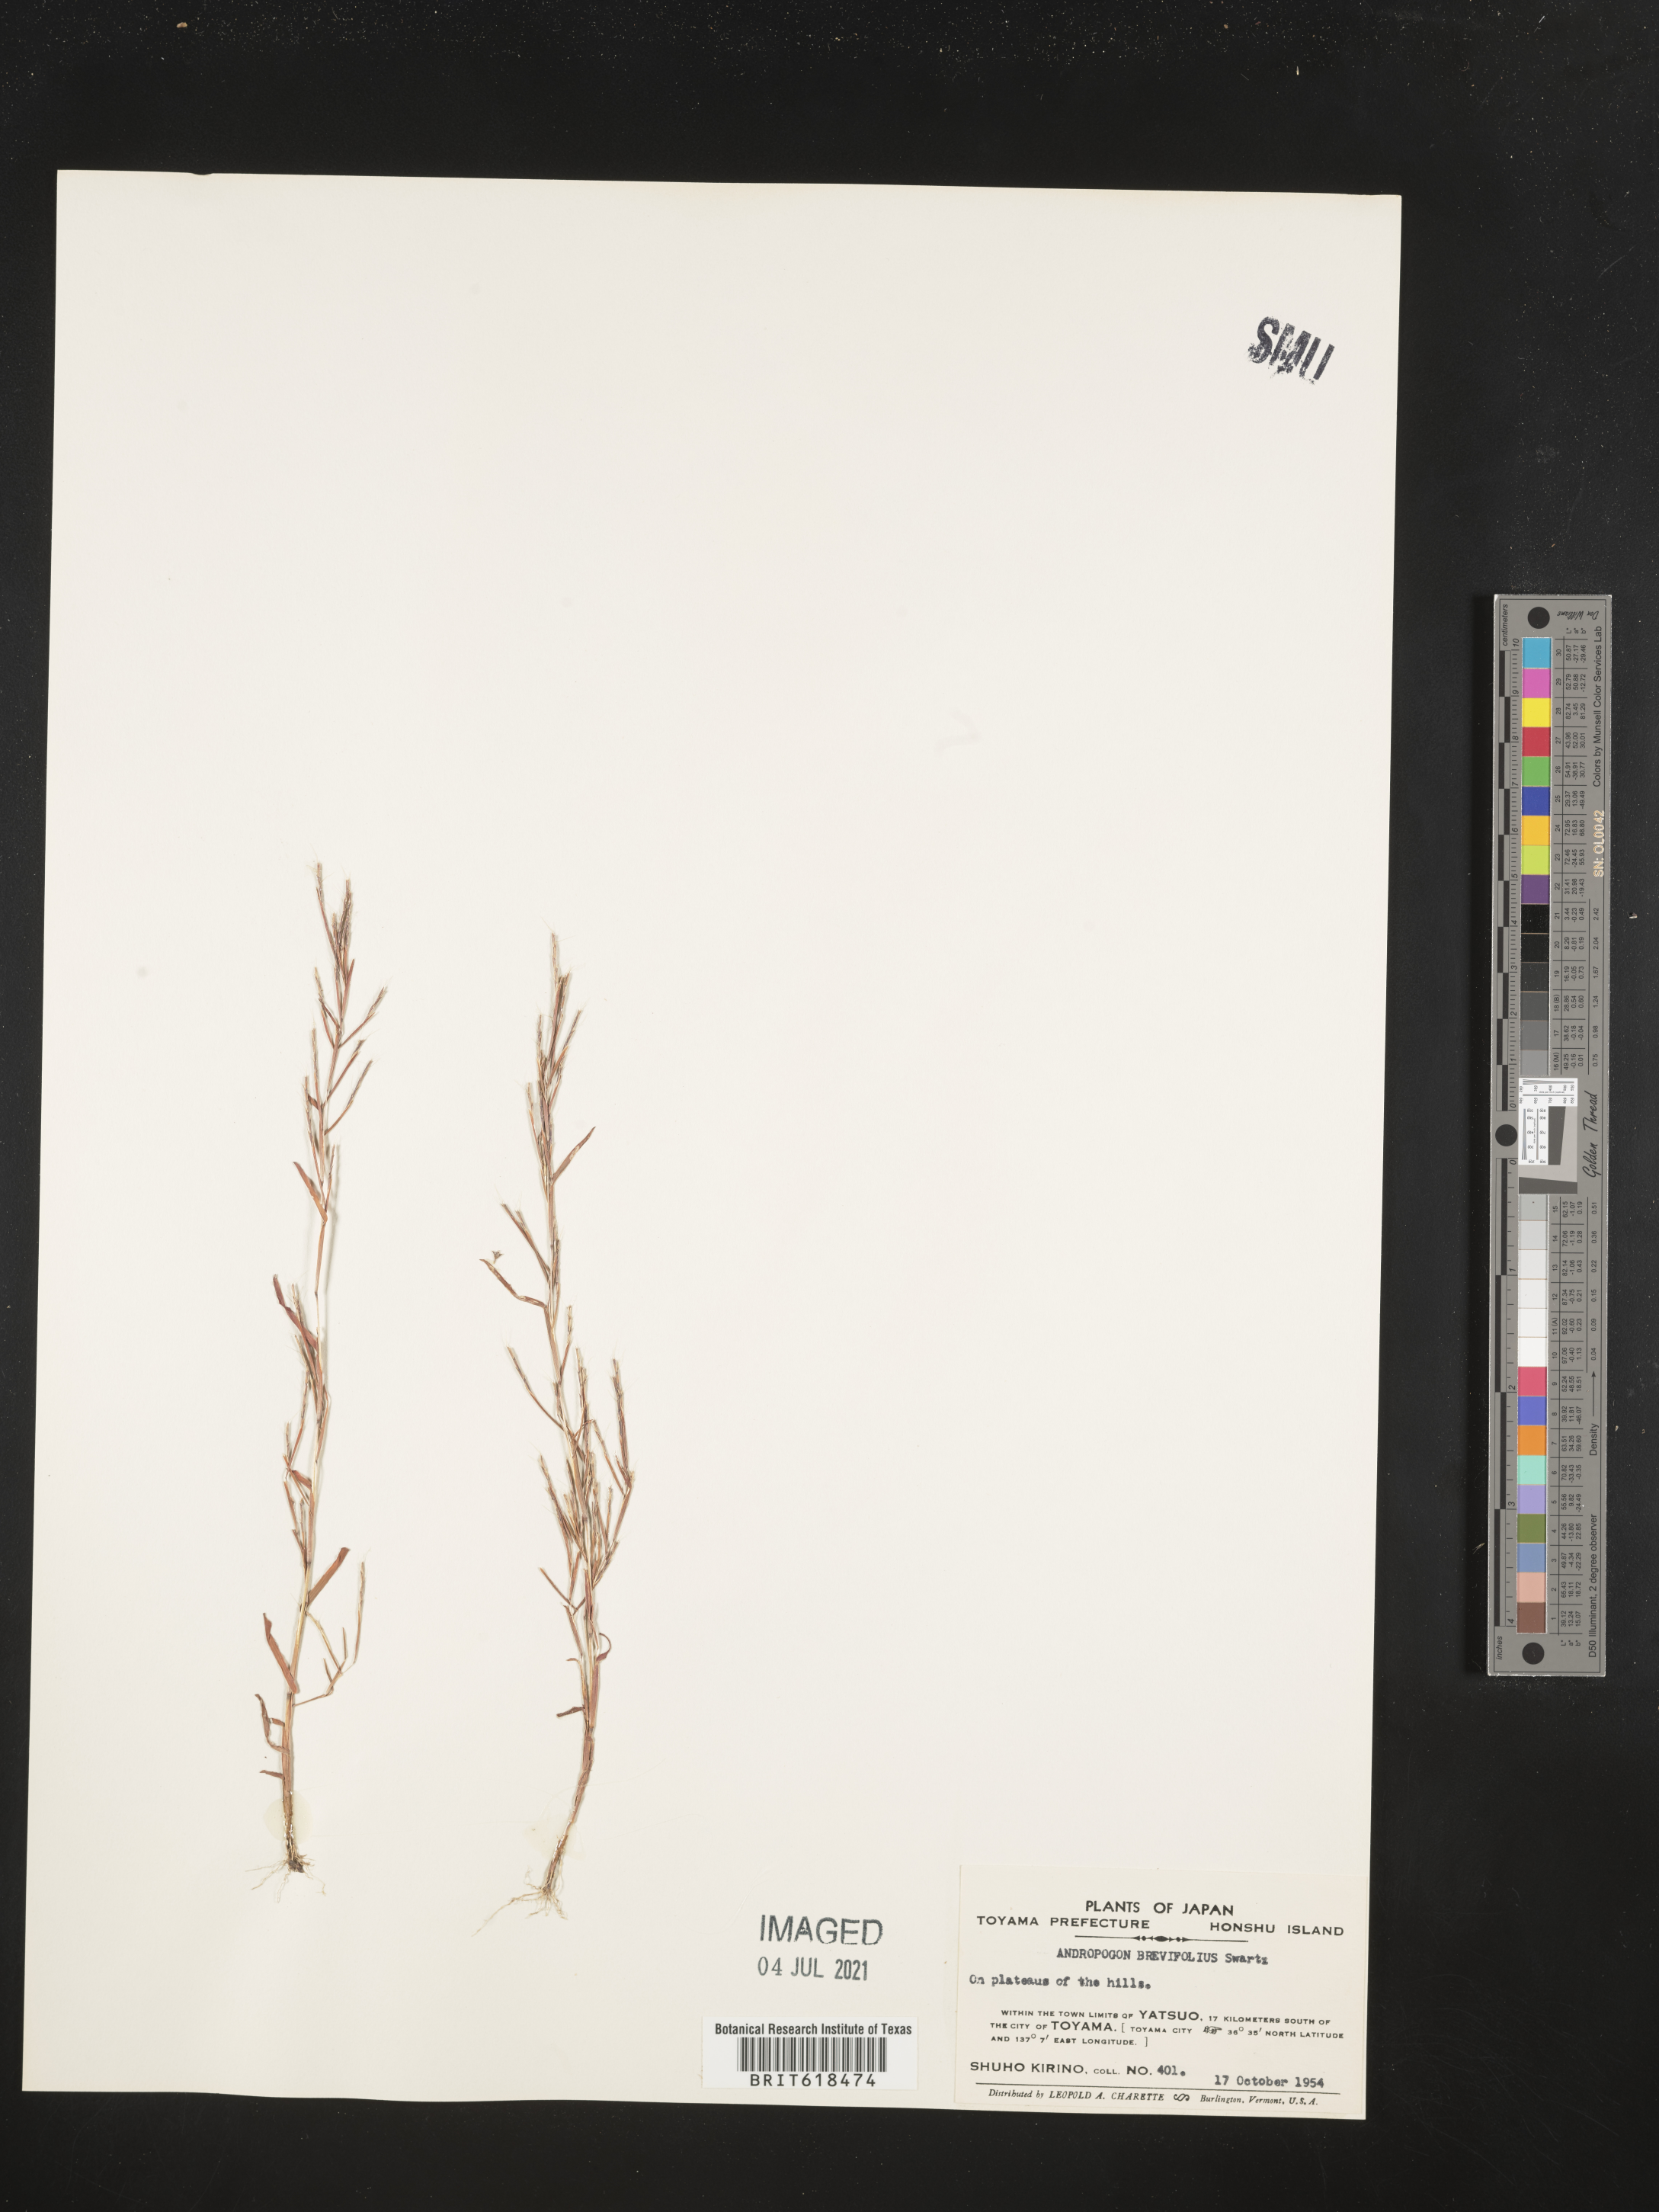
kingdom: Plantae
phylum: Tracheophyta
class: Liliopsida
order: Poales
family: Poaceae
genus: Schizachyrium
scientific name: Schizachyrium brevifolium
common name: Serillo dulce
